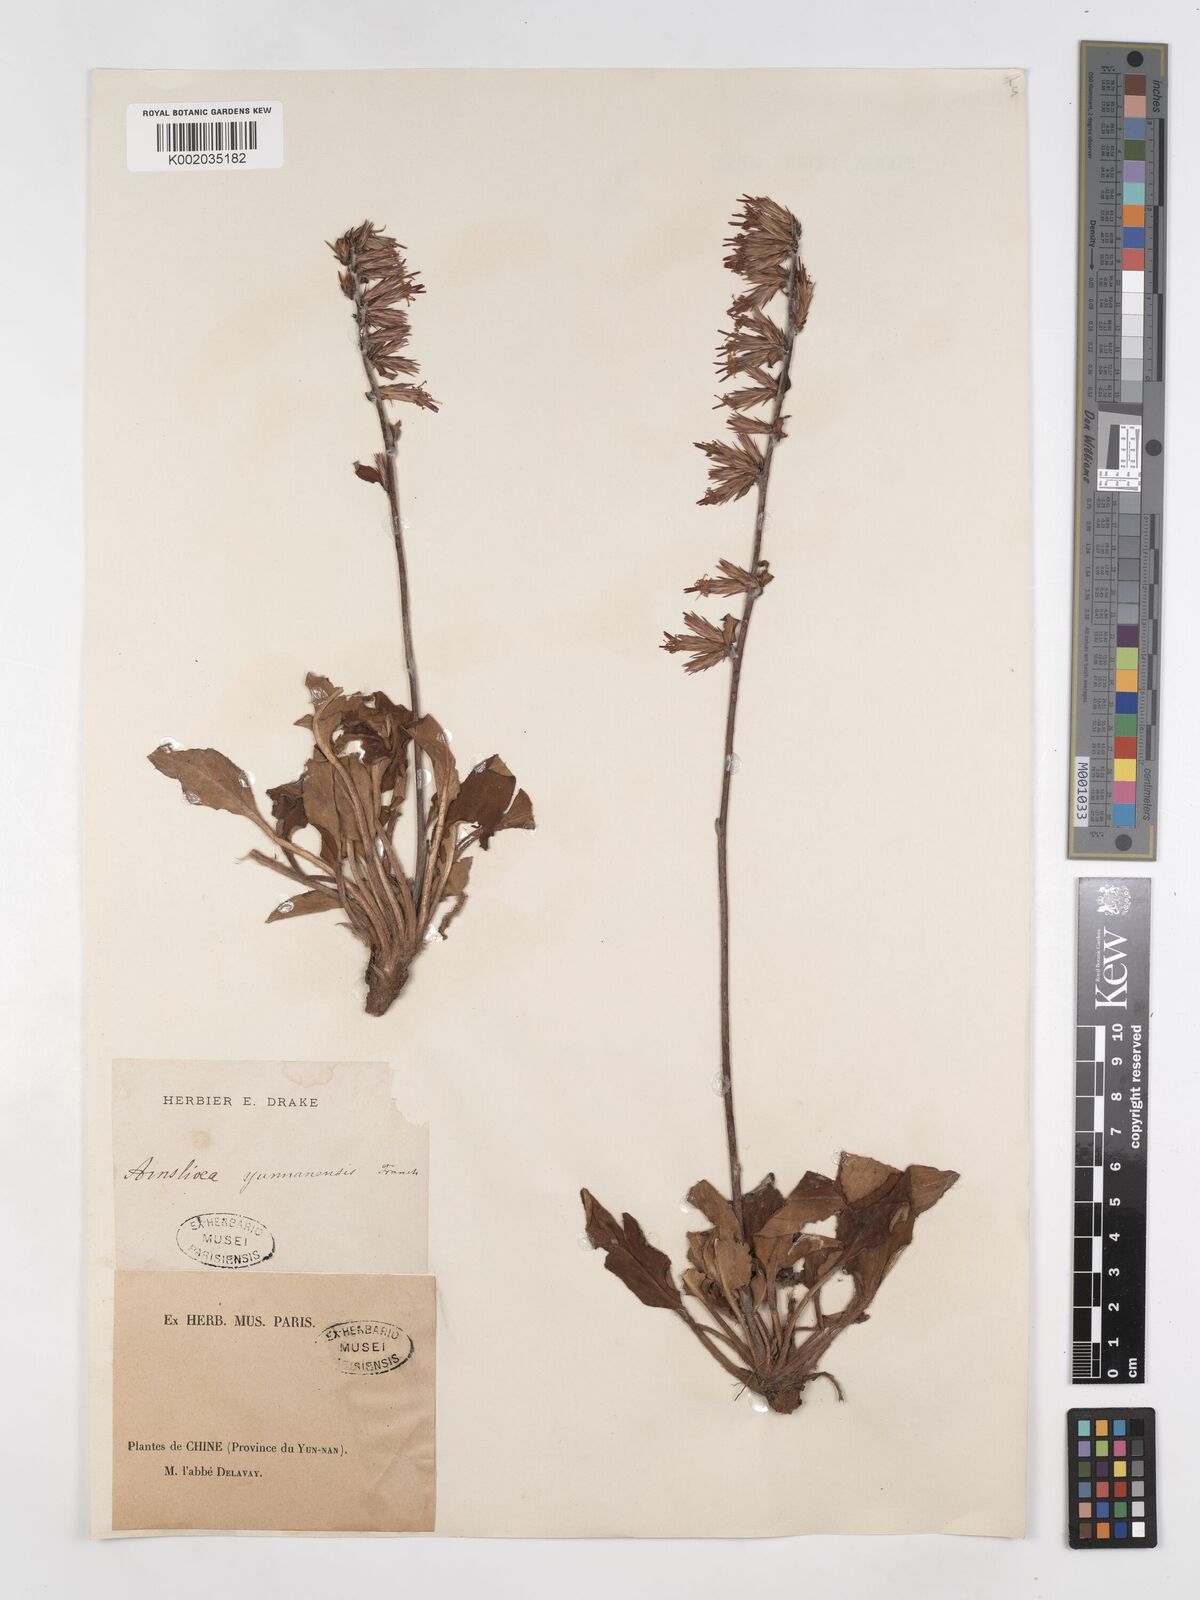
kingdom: Plantae
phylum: Tracheophyta
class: Magnoliopsida
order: Asterales
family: Asteraceae
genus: Ainsliaea
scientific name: Ainsliaea yunnanensis
